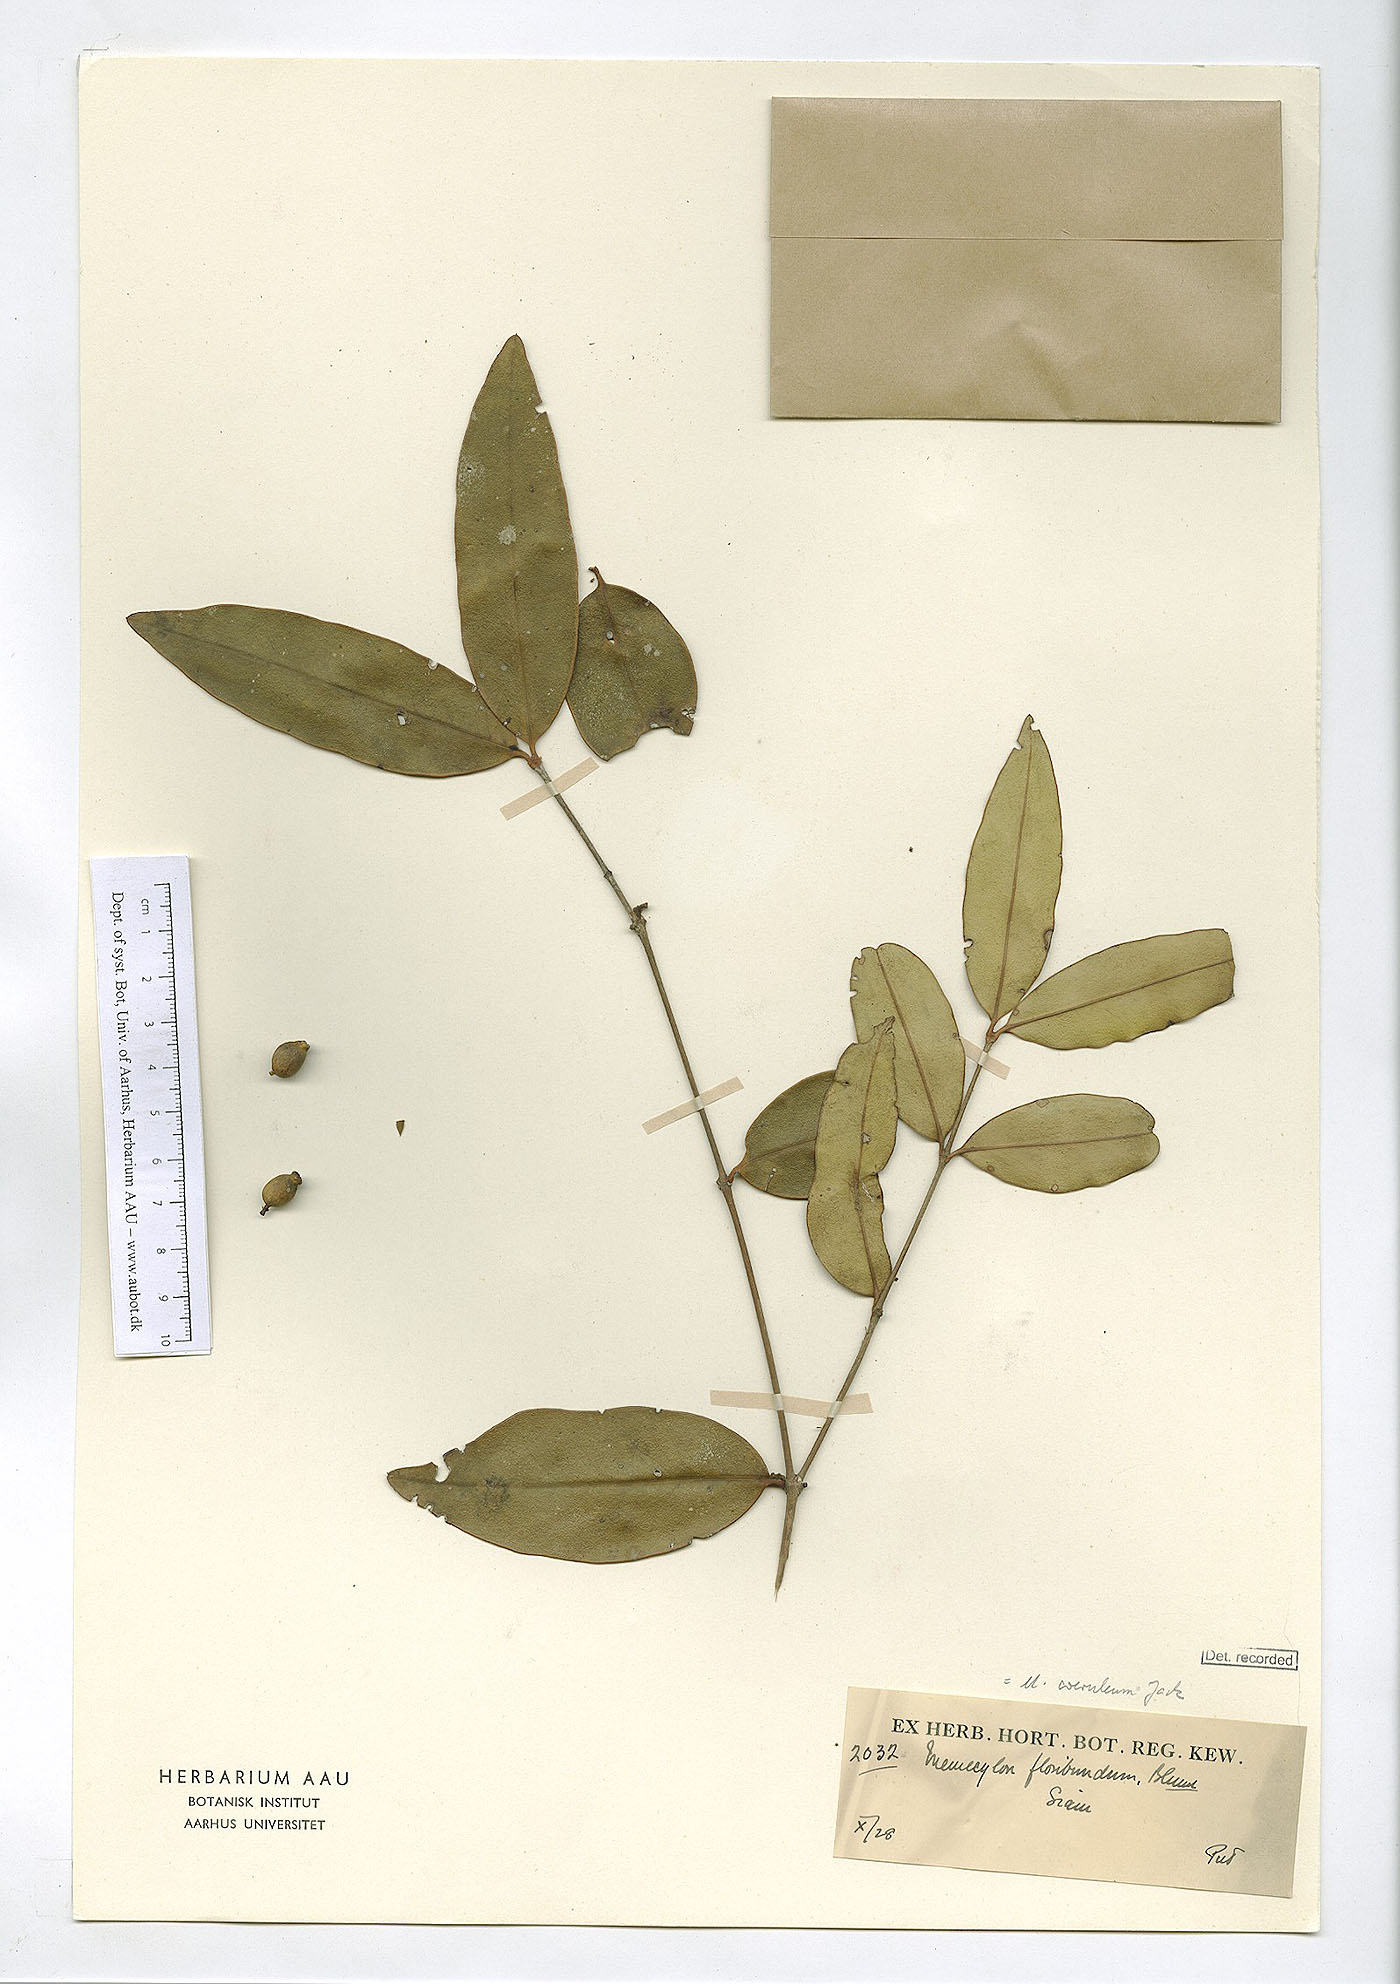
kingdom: Plantae
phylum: Tracheophyta
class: Magnoliopsida
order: Myrtales
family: Melastomataceae
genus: Memecylon
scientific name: Memecylon caeruleum
